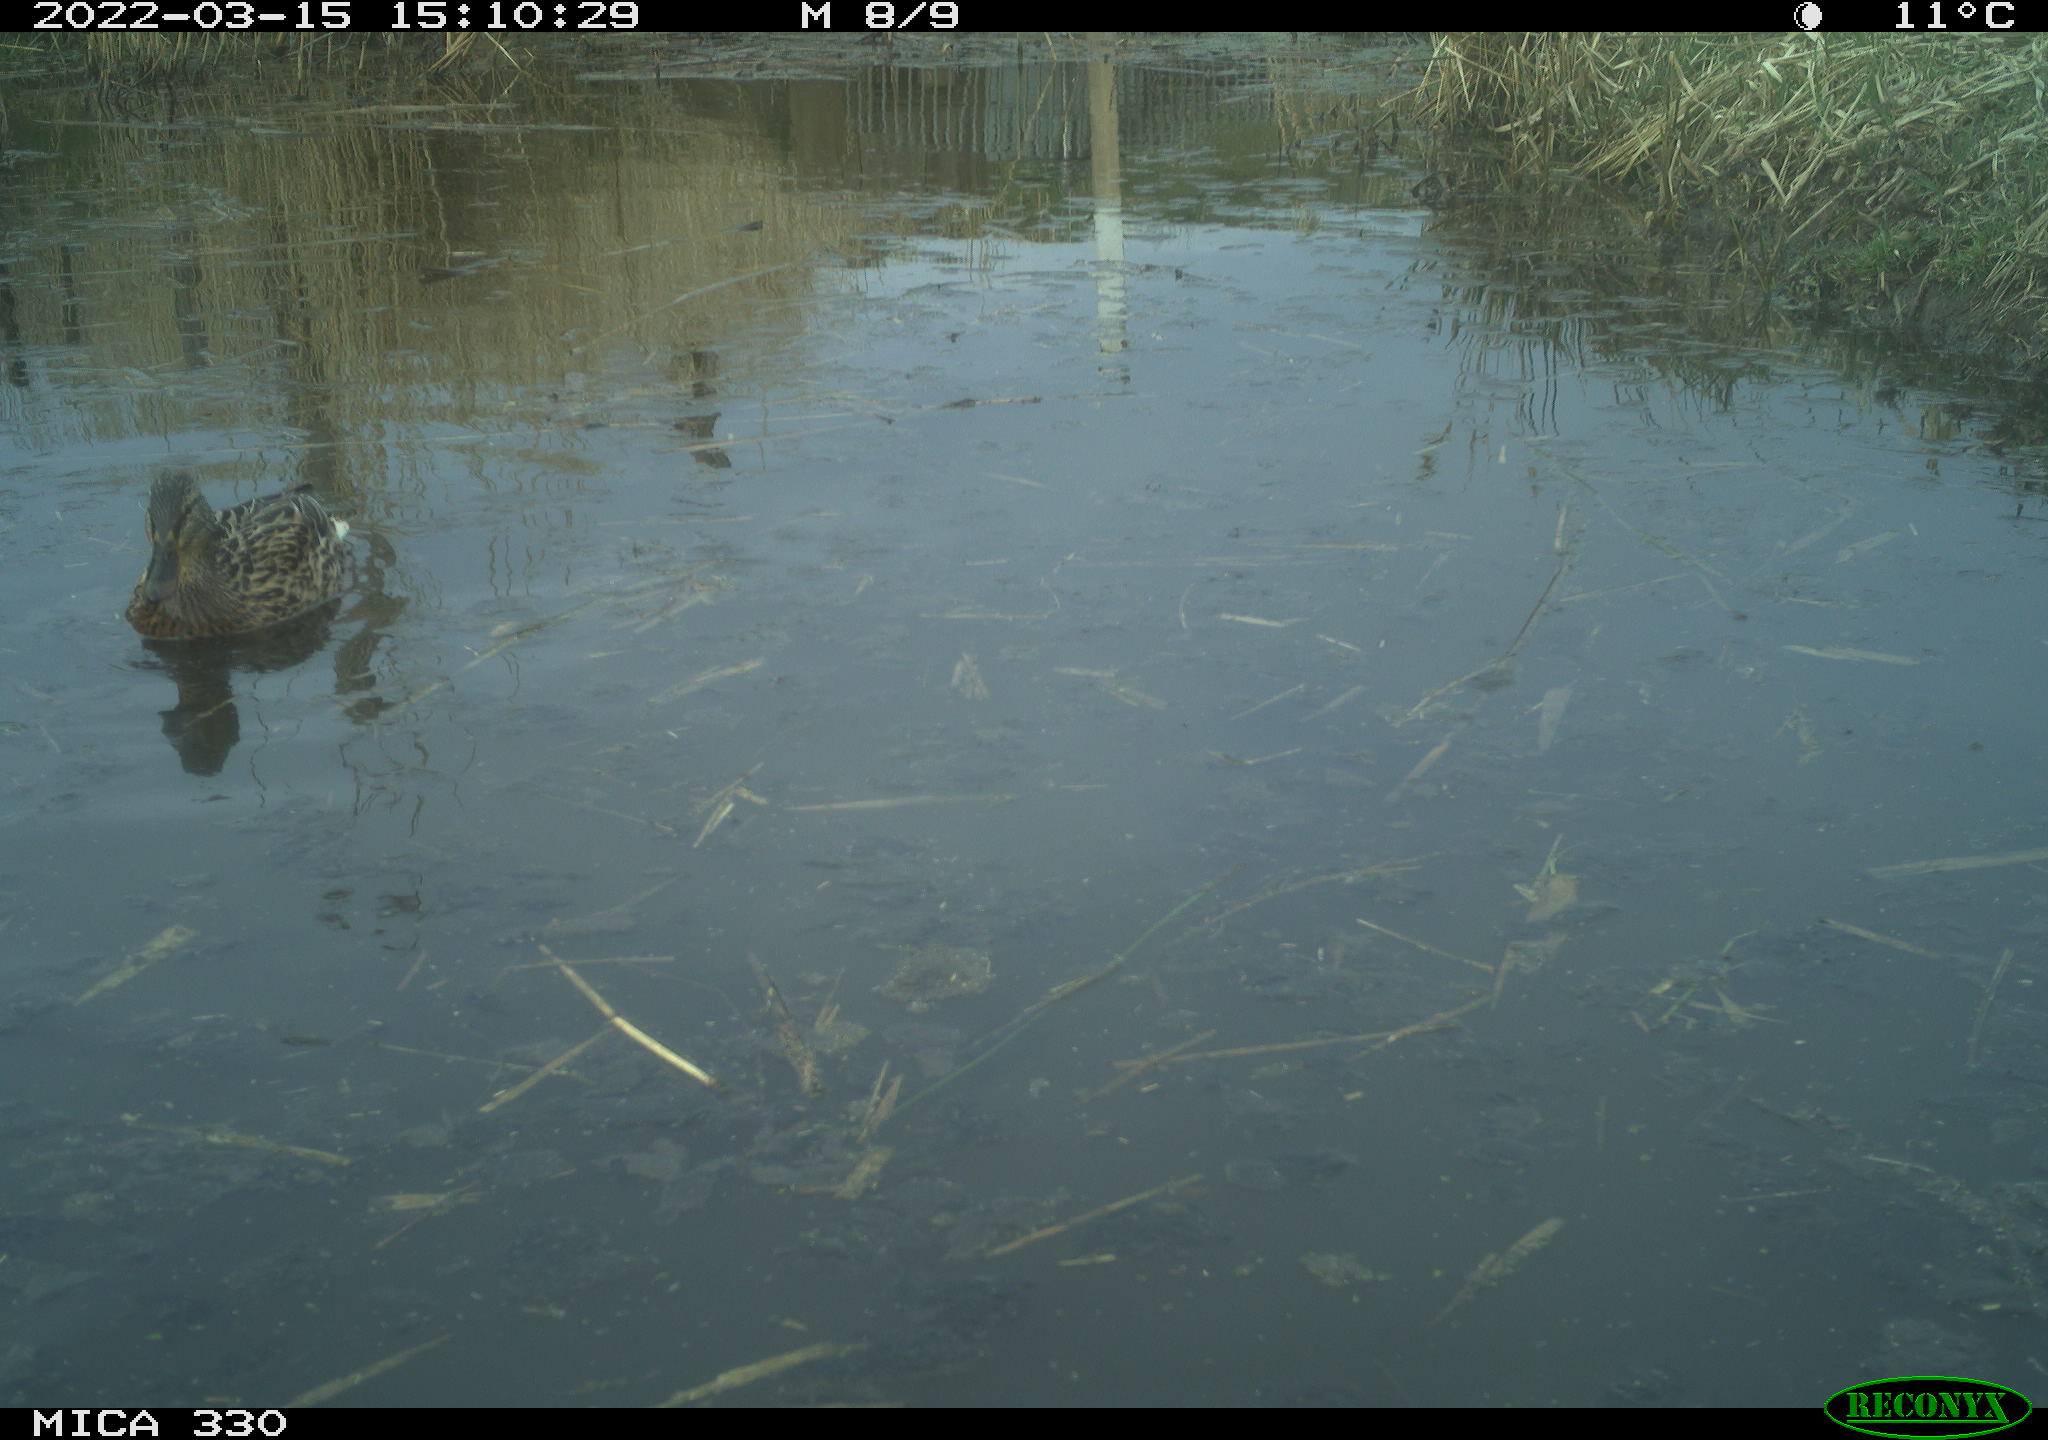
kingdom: Animalia
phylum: Chordata
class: Aves
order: Anseriformes
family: Anatidae
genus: Anas
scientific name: Anas platyrhynchos
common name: Mallard
